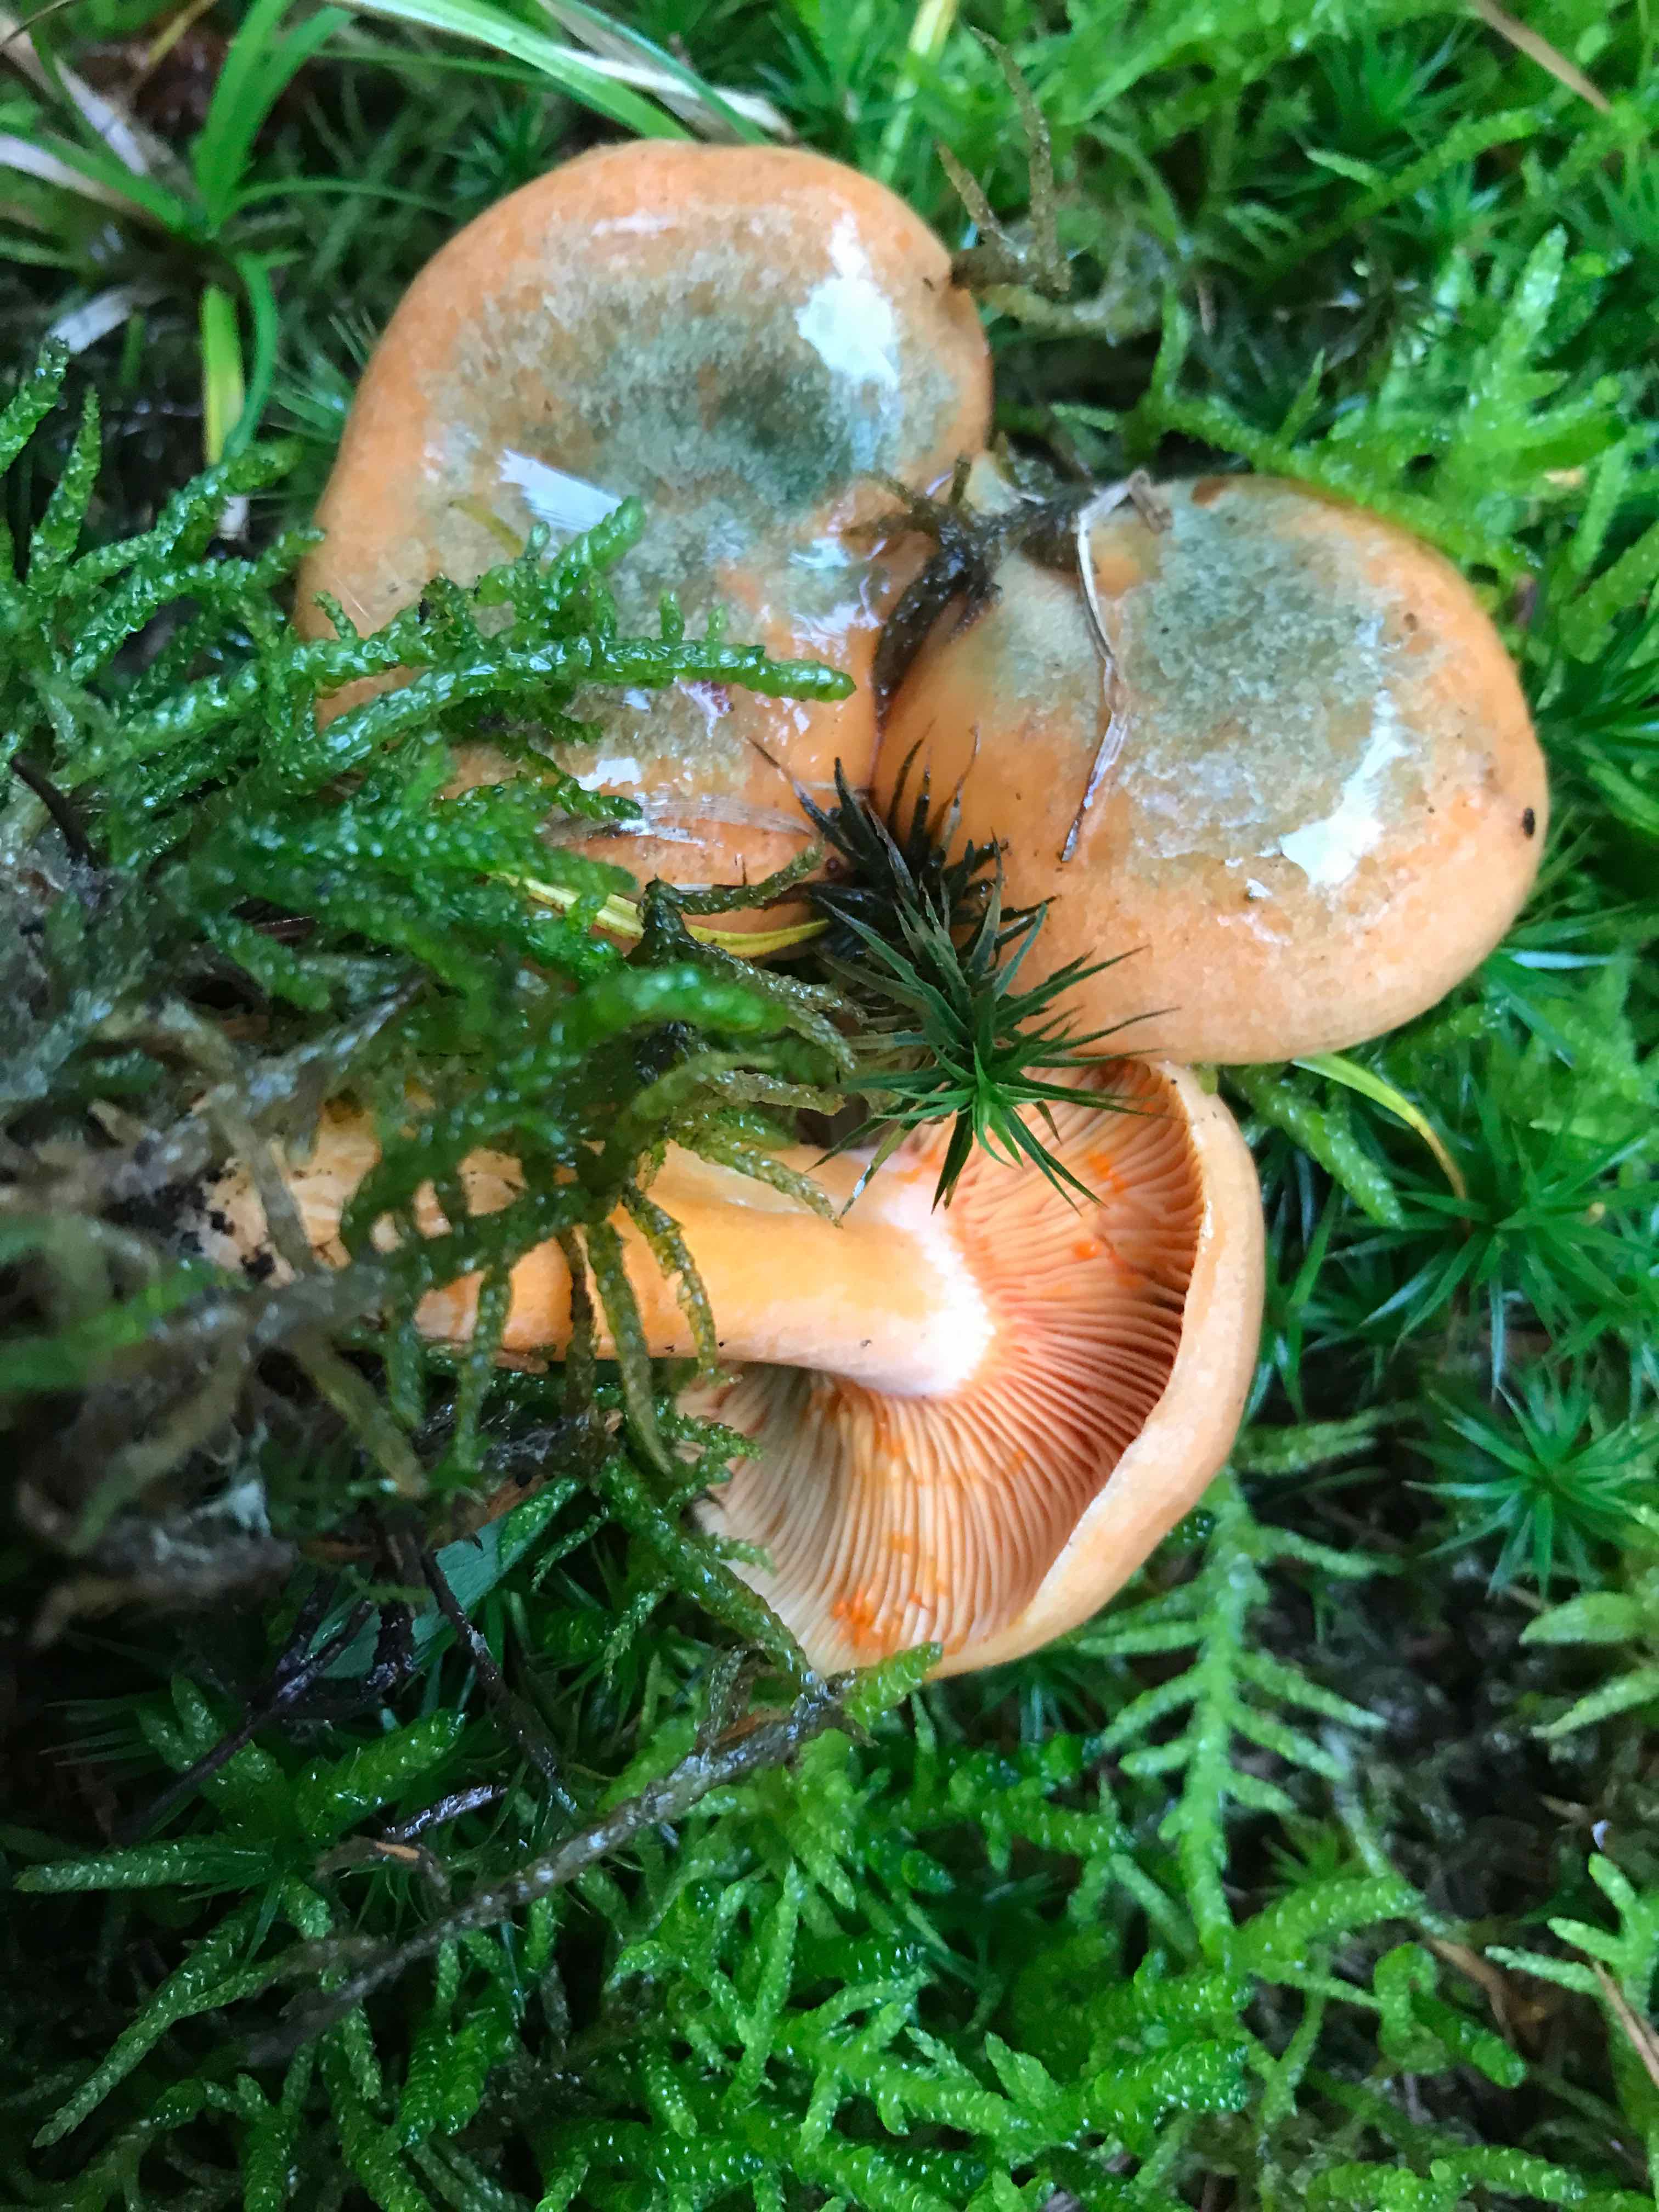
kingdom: Fungi
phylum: Basidiomycota
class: Agaricomycetes
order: Russulales
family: Russulaceae
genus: Lactarius
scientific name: Lactarius deterrimus
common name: gran-mælkehat
